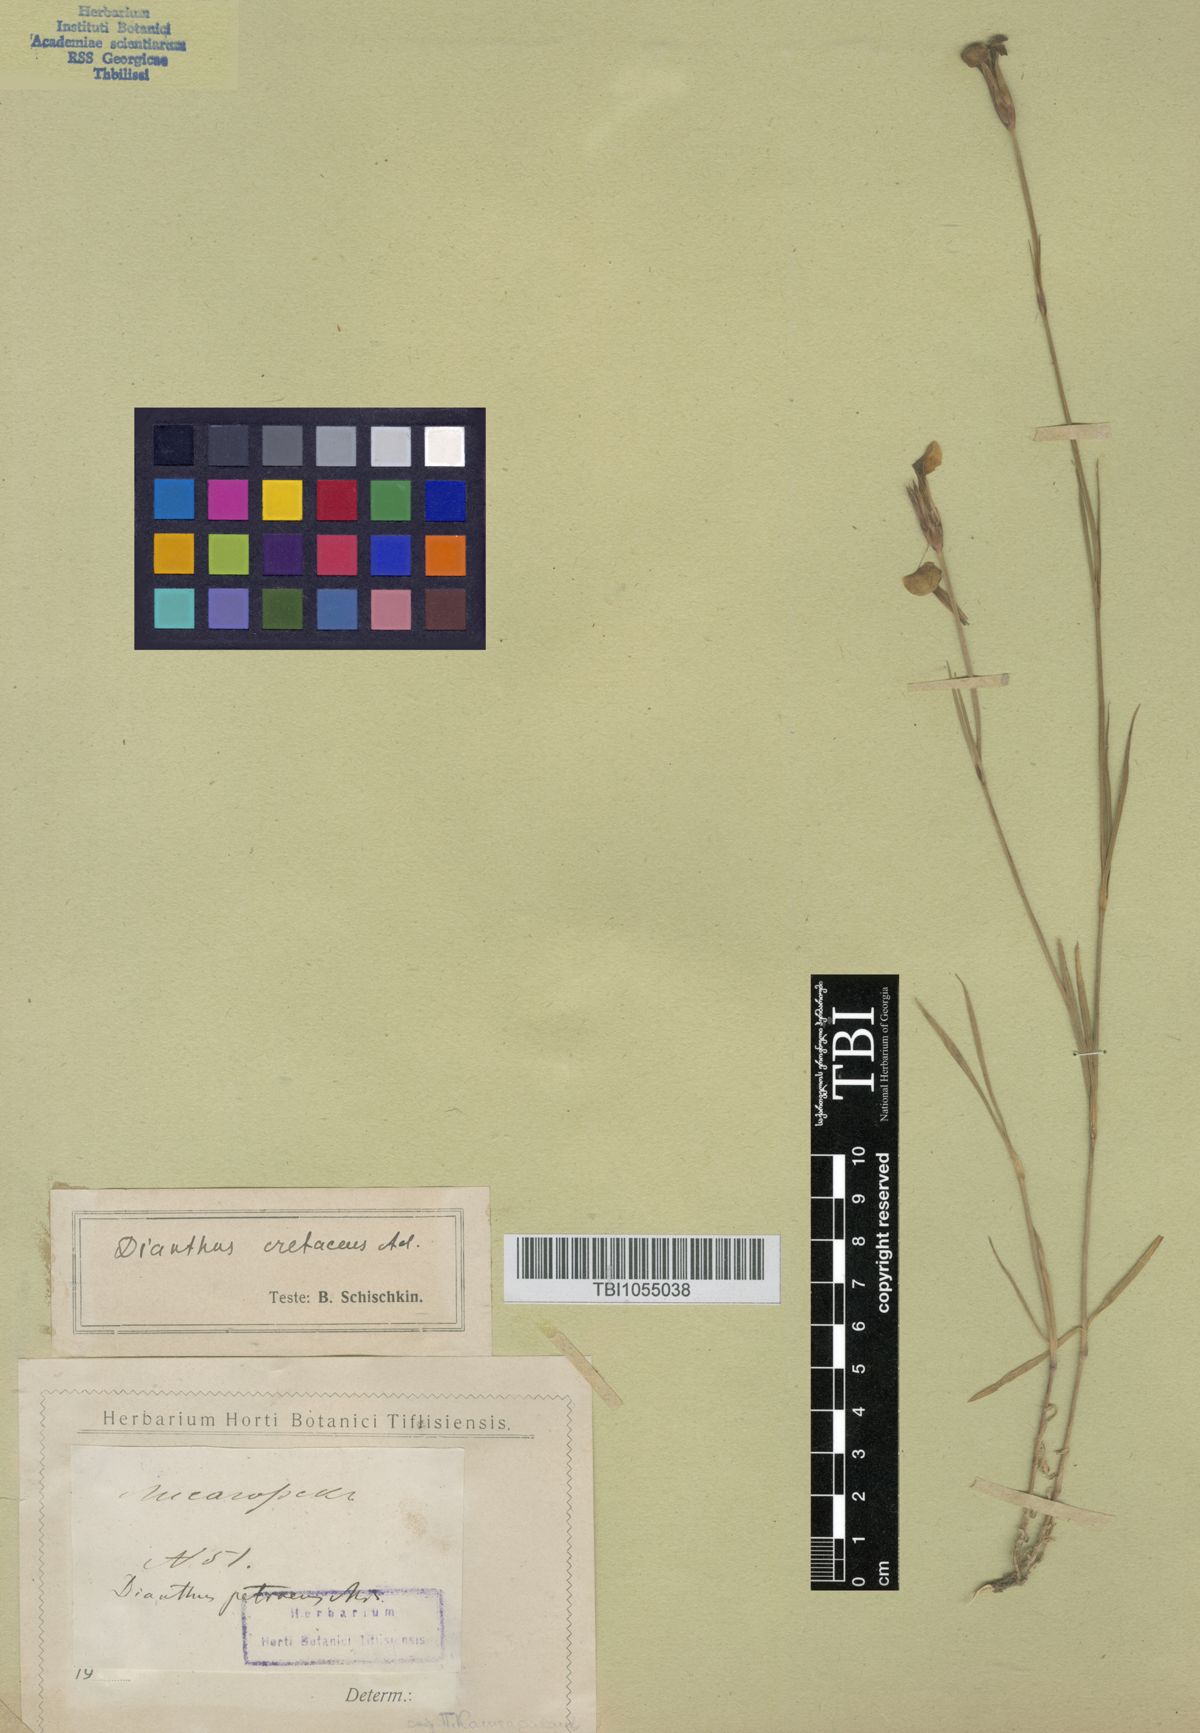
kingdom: Plantae
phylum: Tracheophyta
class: Magnoliopsida
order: Caryophyllales
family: Caryophyllaceae
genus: Dianthus
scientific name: Dianthus cretaceus
